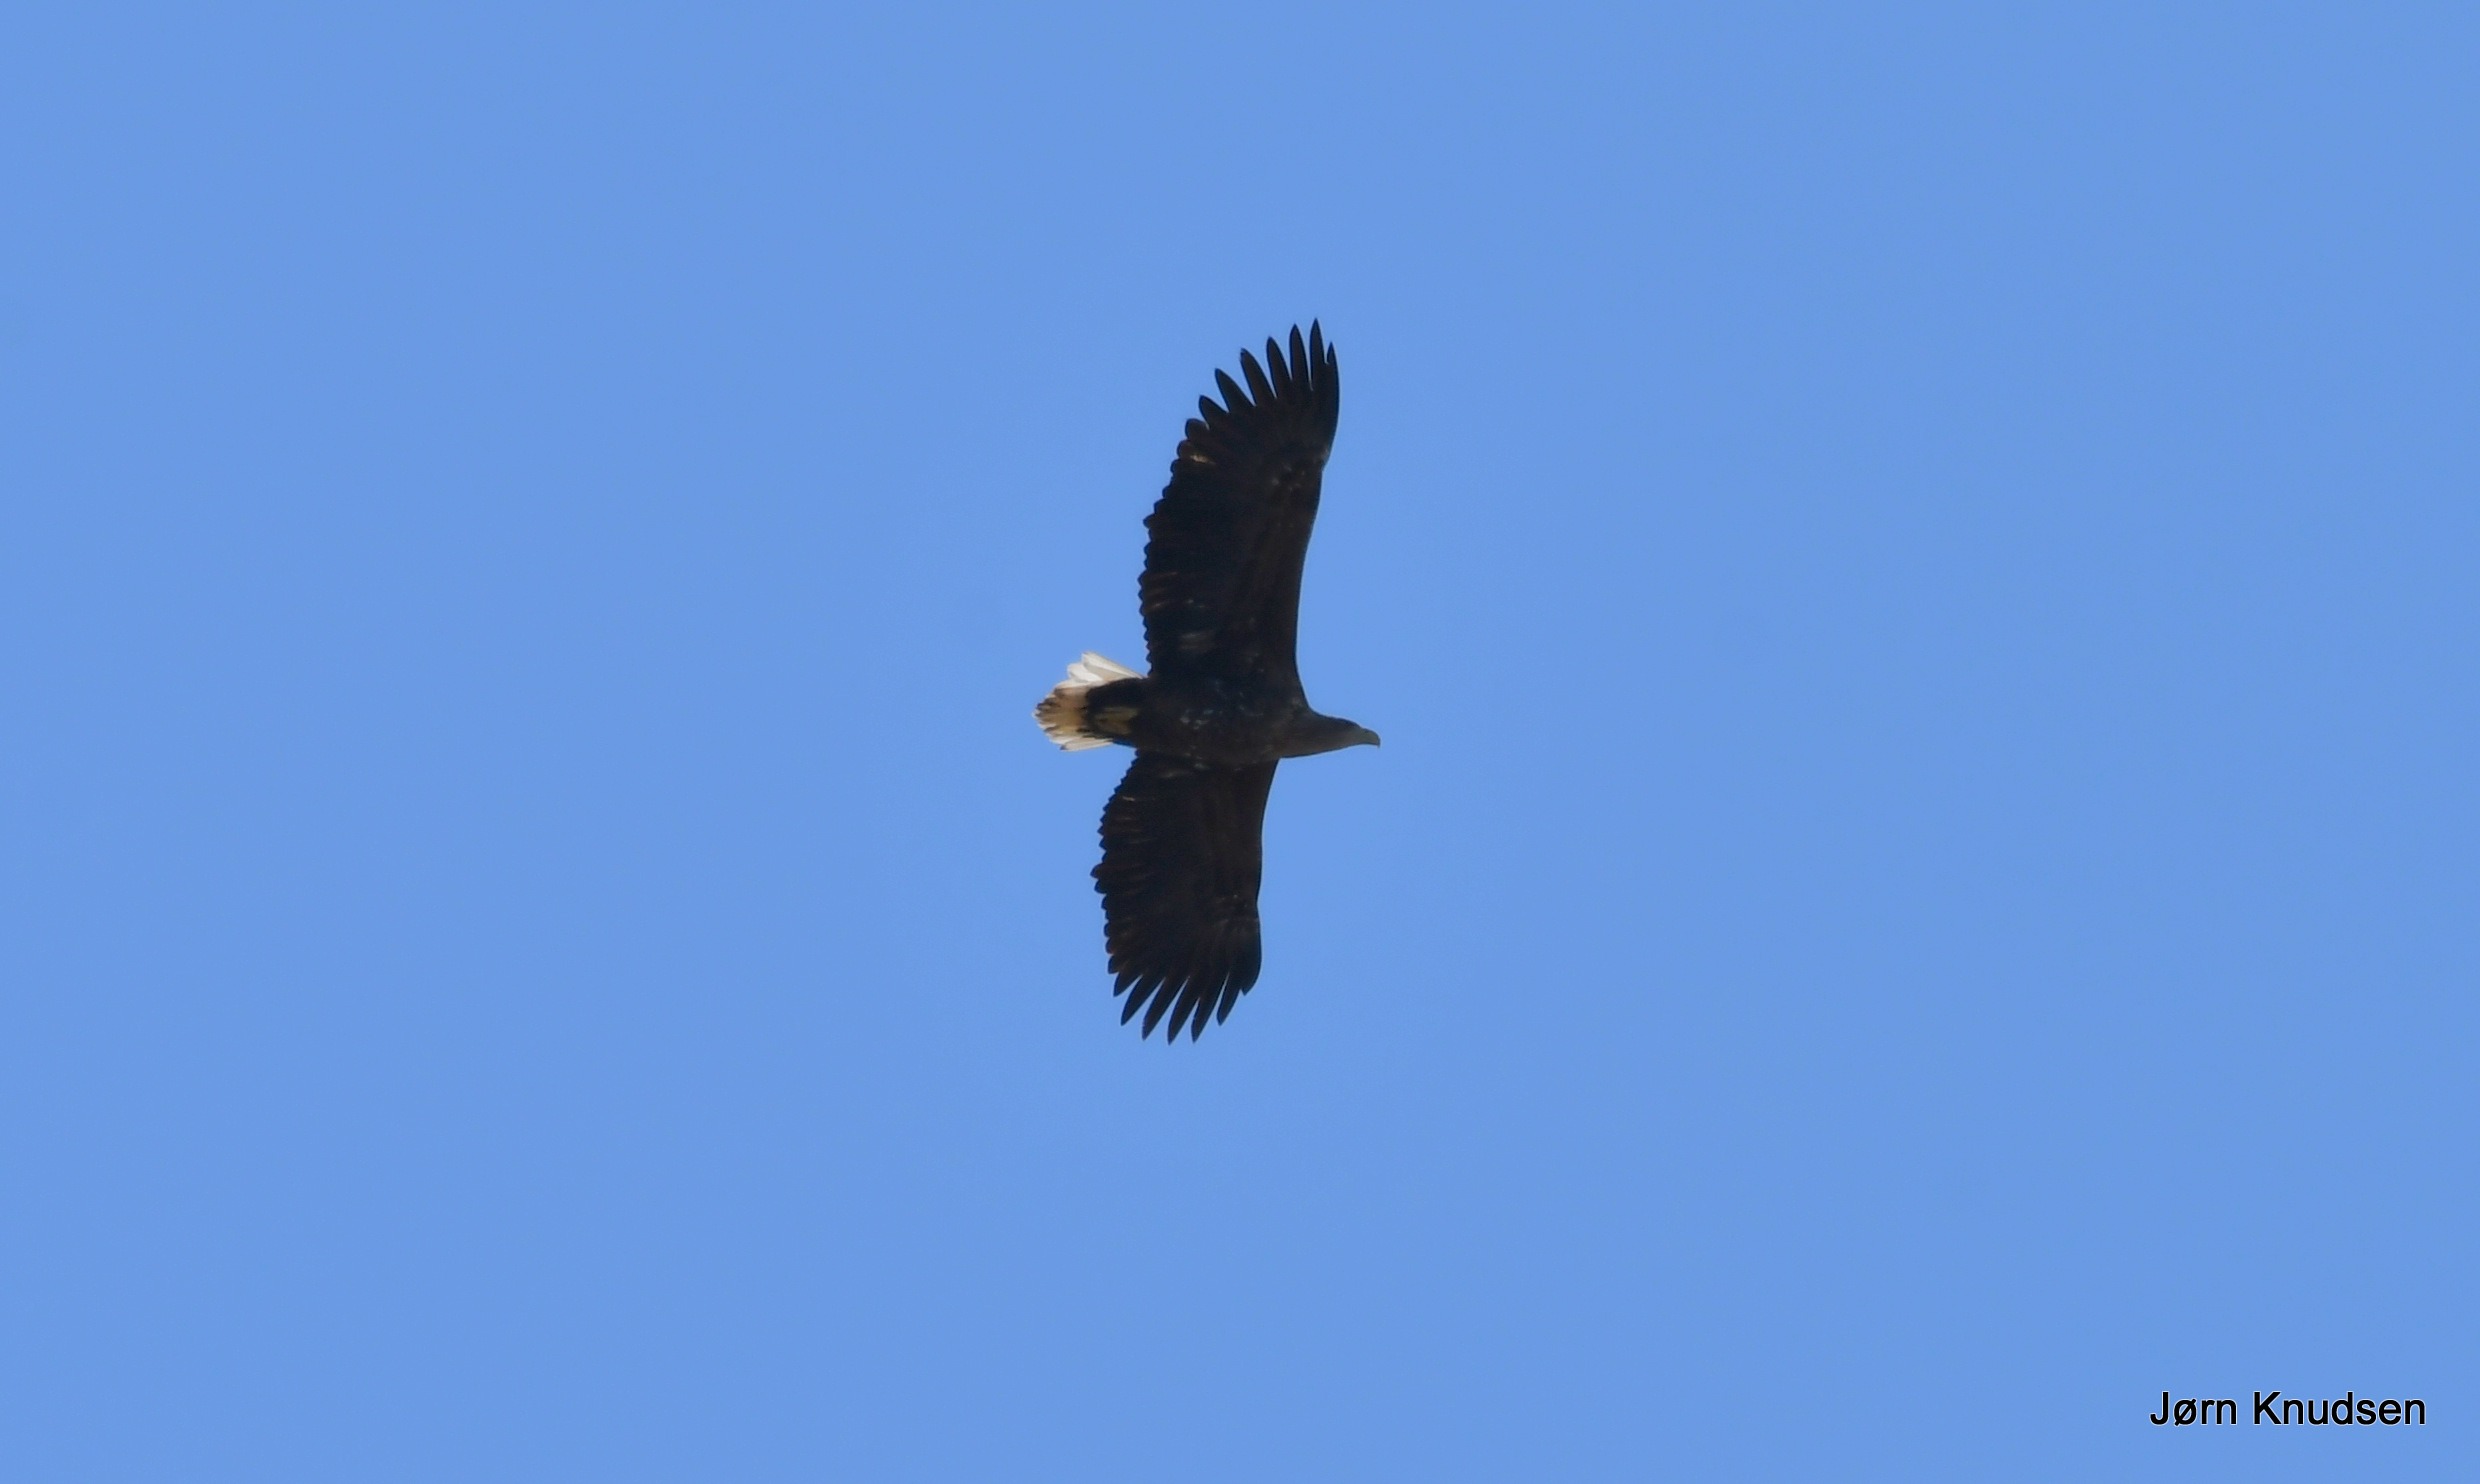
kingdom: Animalia
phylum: Chordata
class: Aves
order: Accipitriformes
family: Accipitridae
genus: Haliaeetus
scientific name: Haliaeetus albicilla
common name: Havørn
